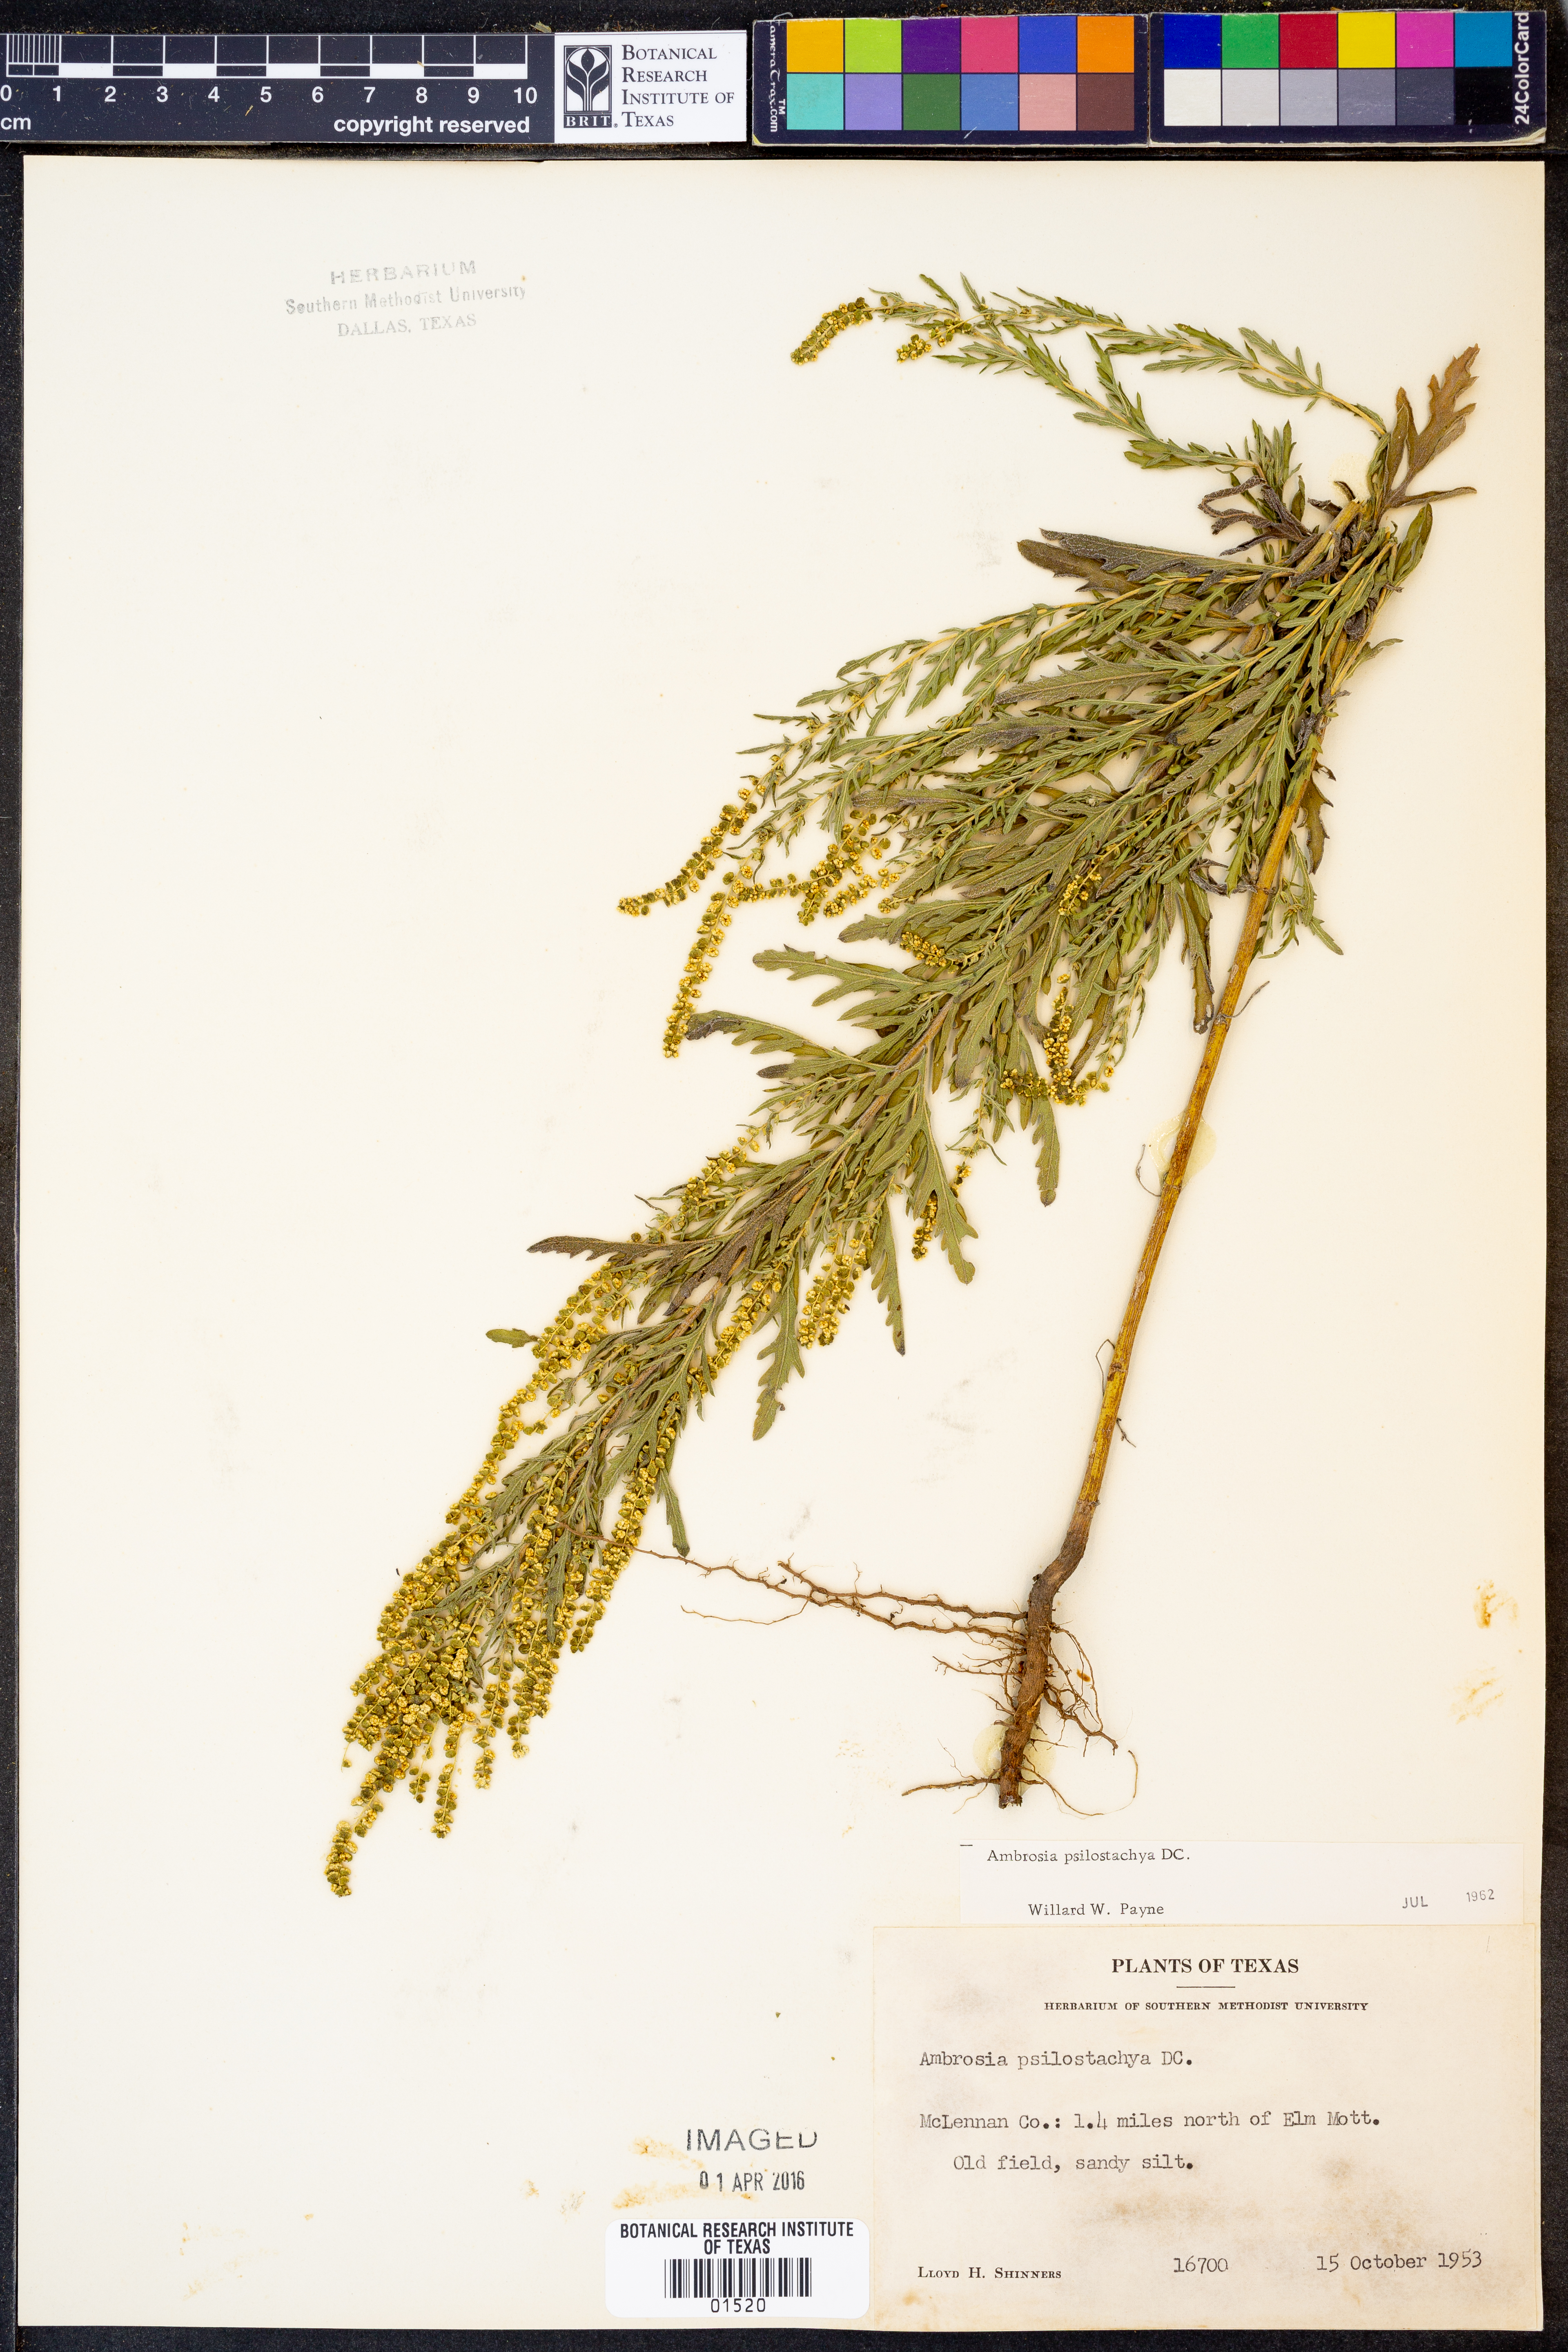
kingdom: Plantae
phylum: Tracheophyta
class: Magnoliopsida
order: Asterales
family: Asteraceae
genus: Ambrosia
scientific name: Ambrosia psilostachya
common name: Perennial ragweed
